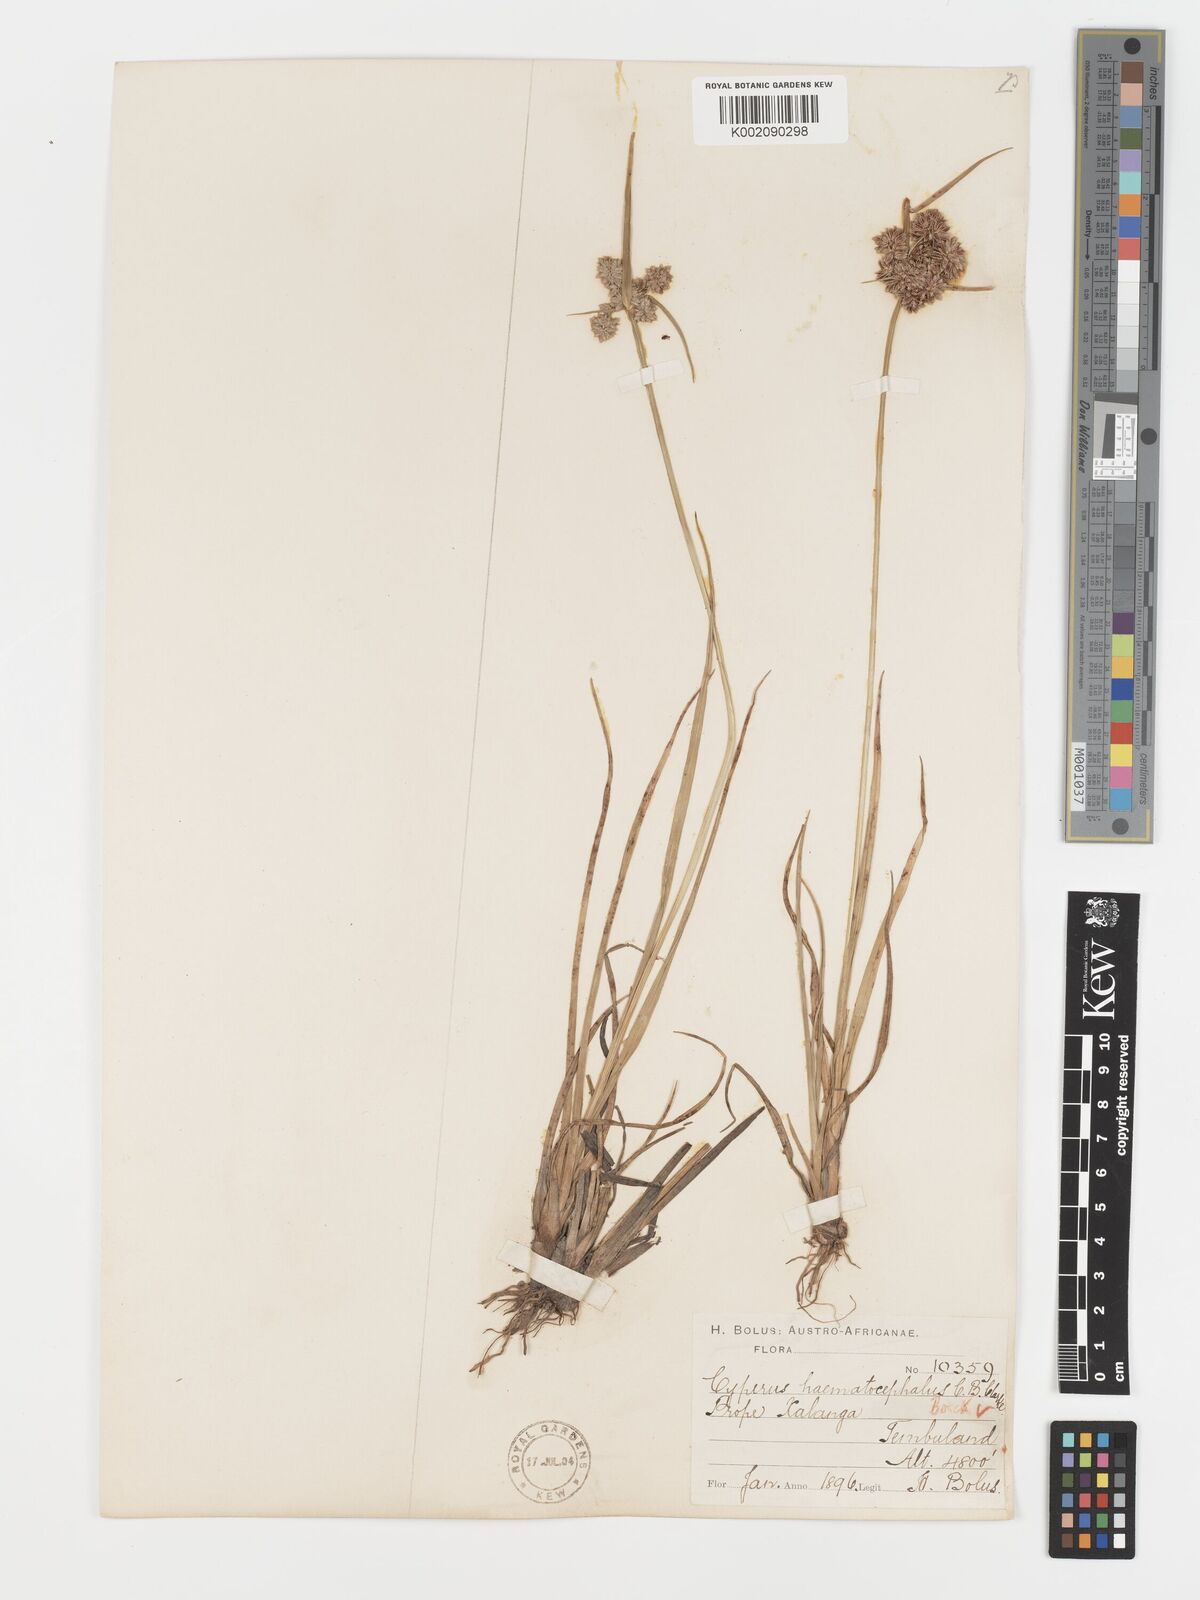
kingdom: Plantae
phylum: Tracheophyta
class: Liliopsida
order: Poales
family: Cyperaceae
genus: Cyperus
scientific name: Cyperus haematocephalus
